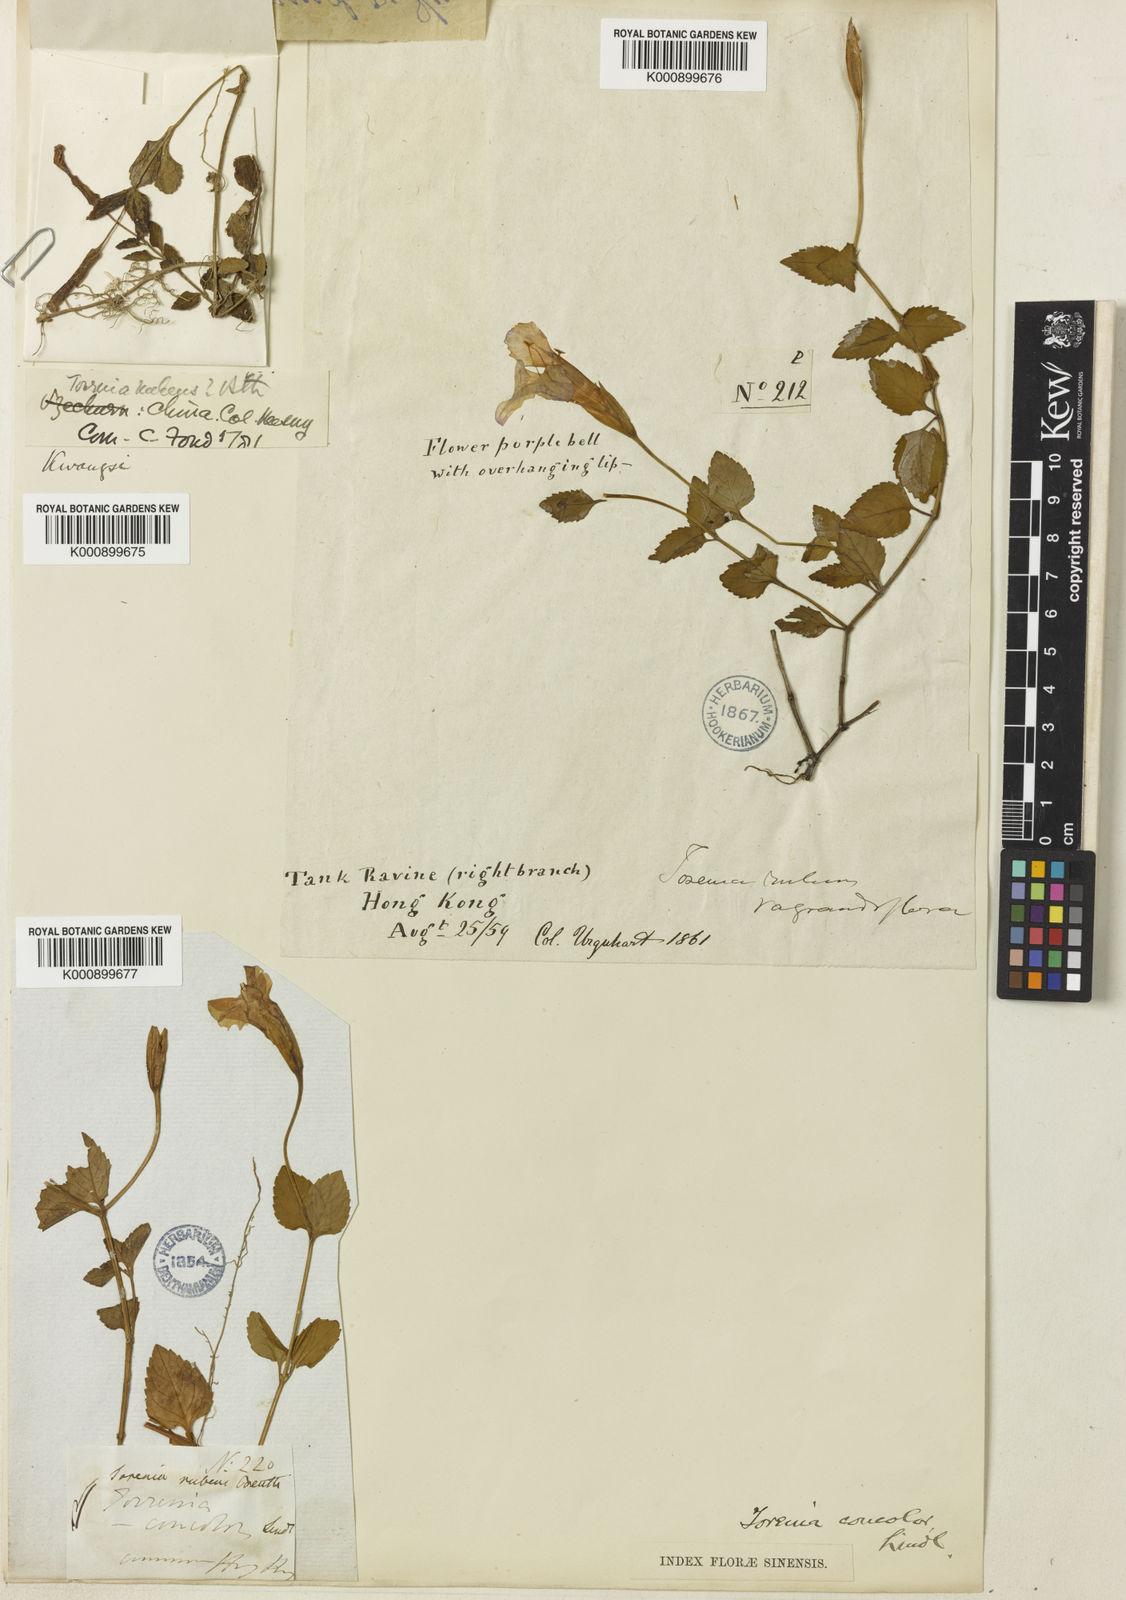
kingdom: Plantae
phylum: Tracheophyta
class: Magnoliopsida
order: Lamiales
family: Linderniaceae
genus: Torenia
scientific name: Torenia
